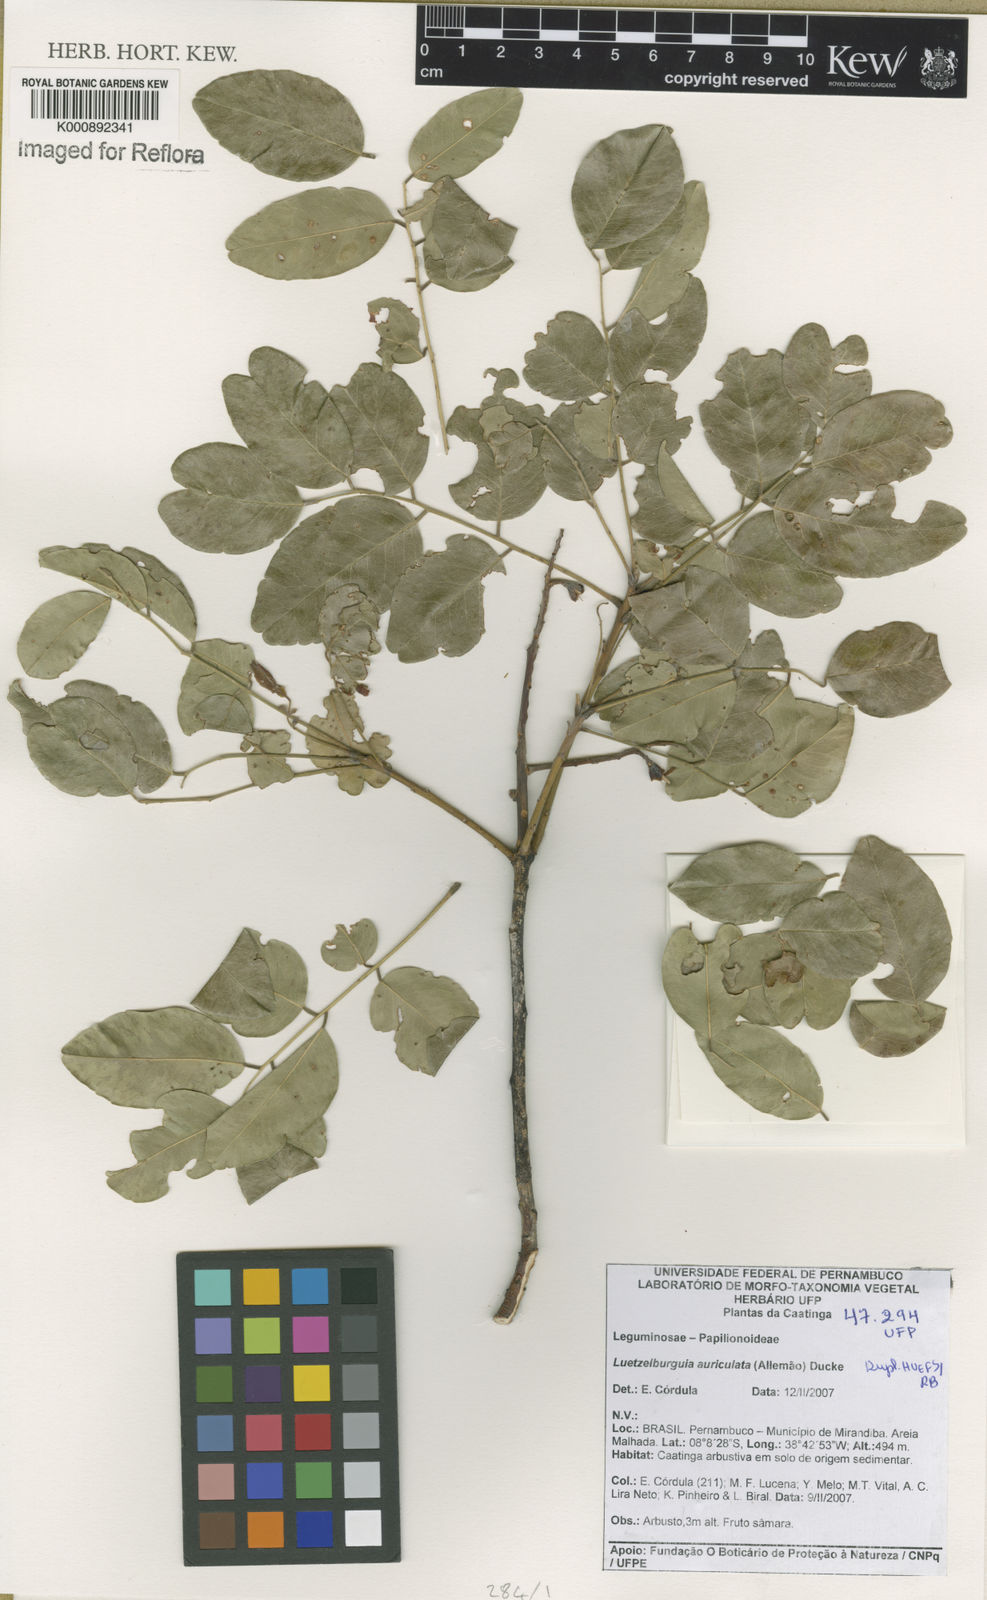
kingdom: Plantae
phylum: Tracheophyta
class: Magnoliopsida
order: Fabales
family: Fabaceae
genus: Luetzelburgia
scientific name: Luetzelburgia
